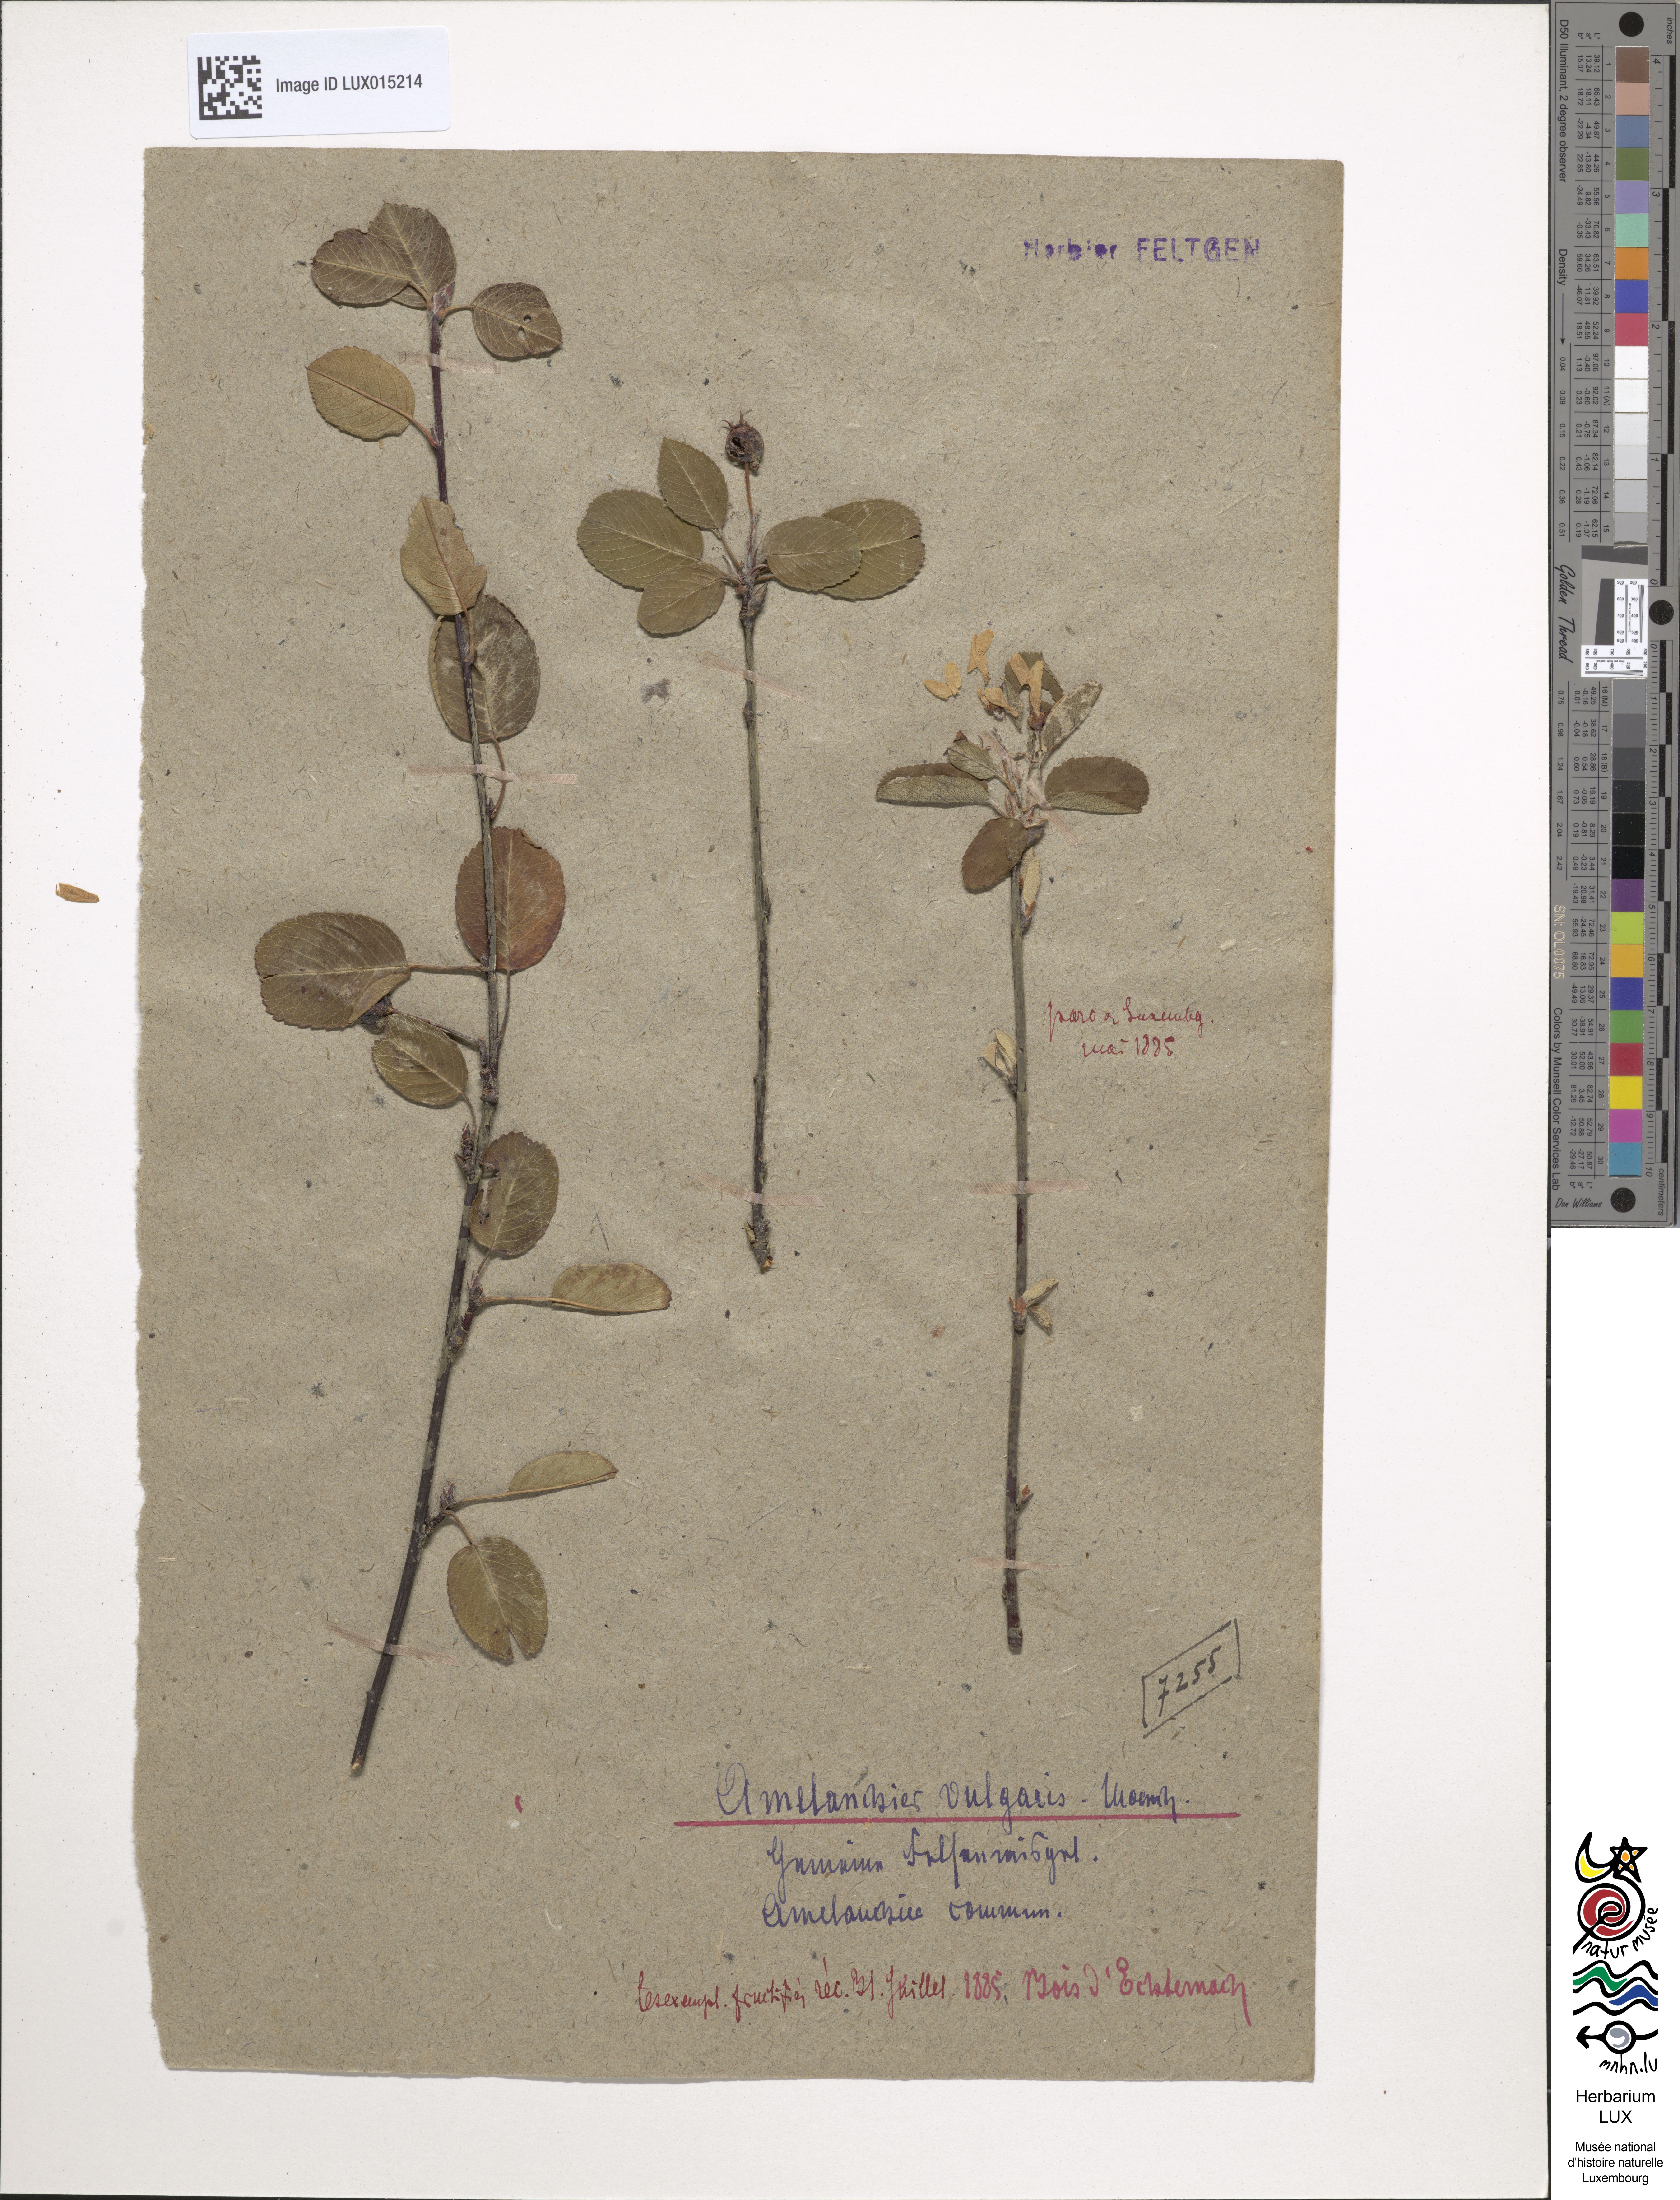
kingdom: Plantae
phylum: Tracheophyta
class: Magnoliopsida
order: Rosales
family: Rosaceae
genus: Amelanchier
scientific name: Amelanchier ovalis
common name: Serviceberry
